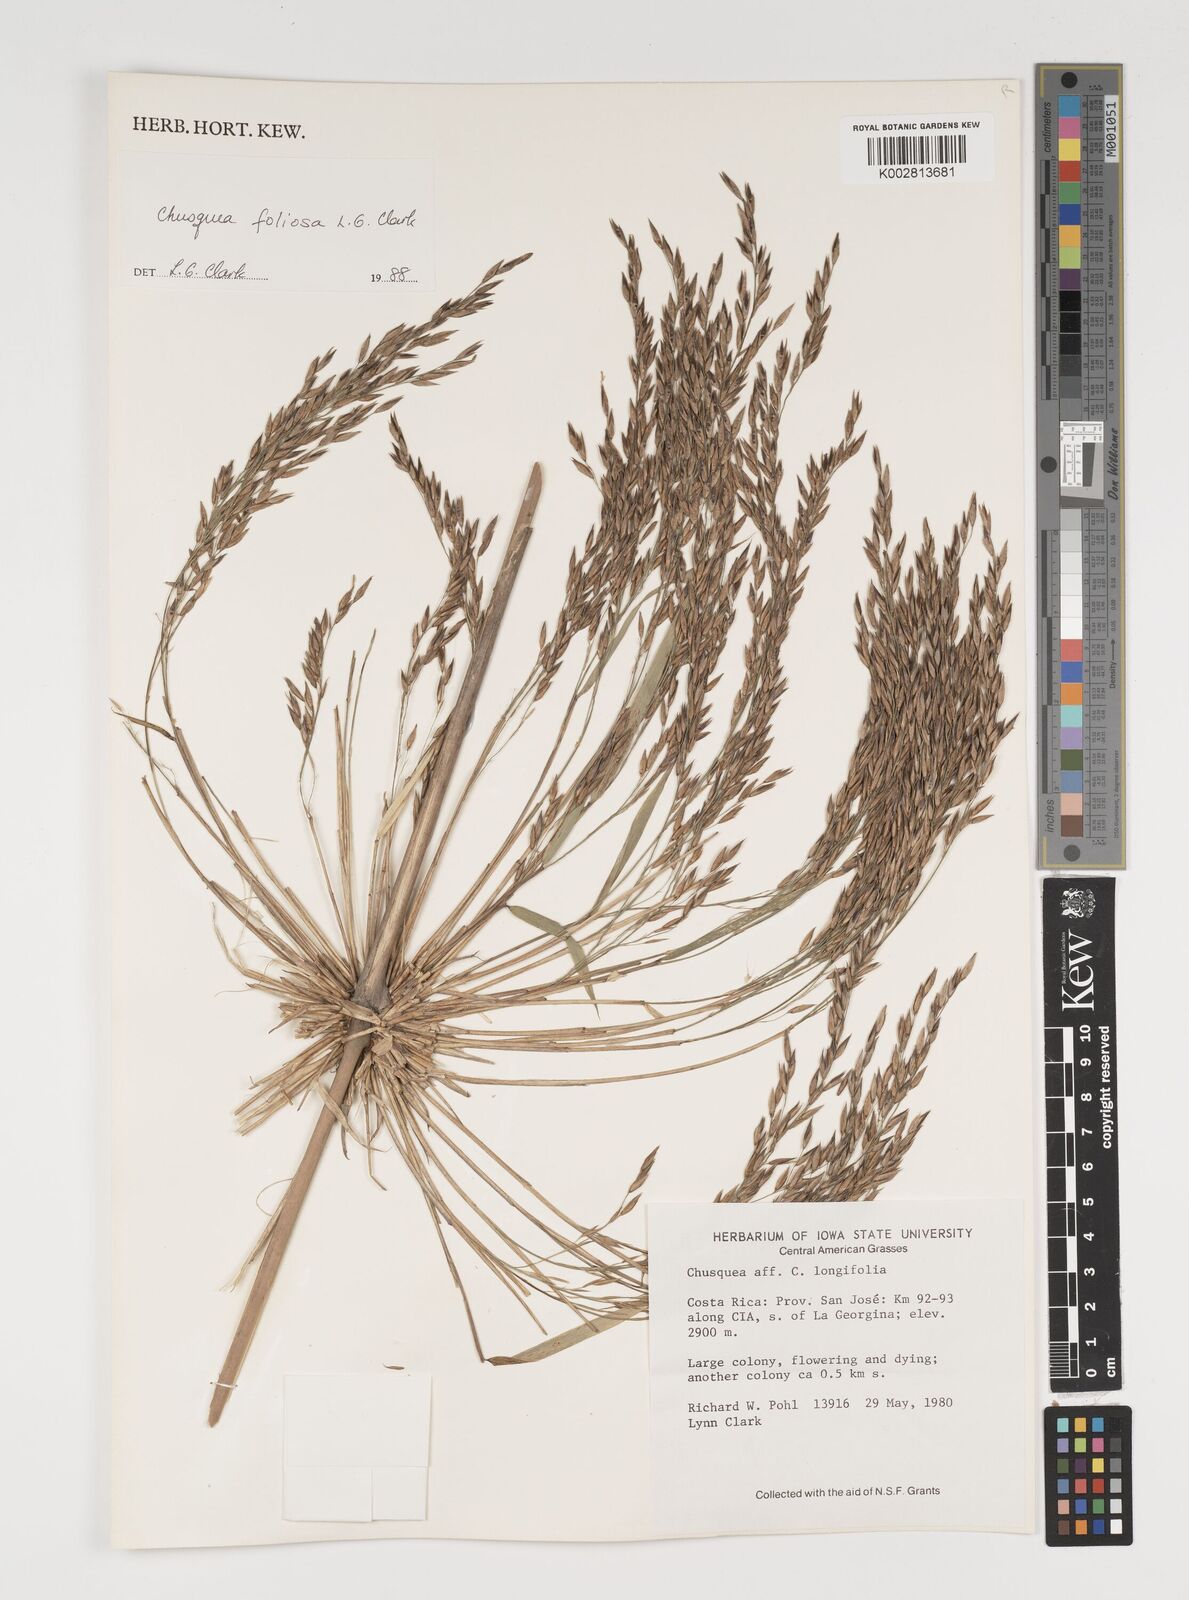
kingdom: Plantae
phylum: Tracheophyta
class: Liliopsida
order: Poales
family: Poaceae
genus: Chusquea
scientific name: Chusquea foliosa
